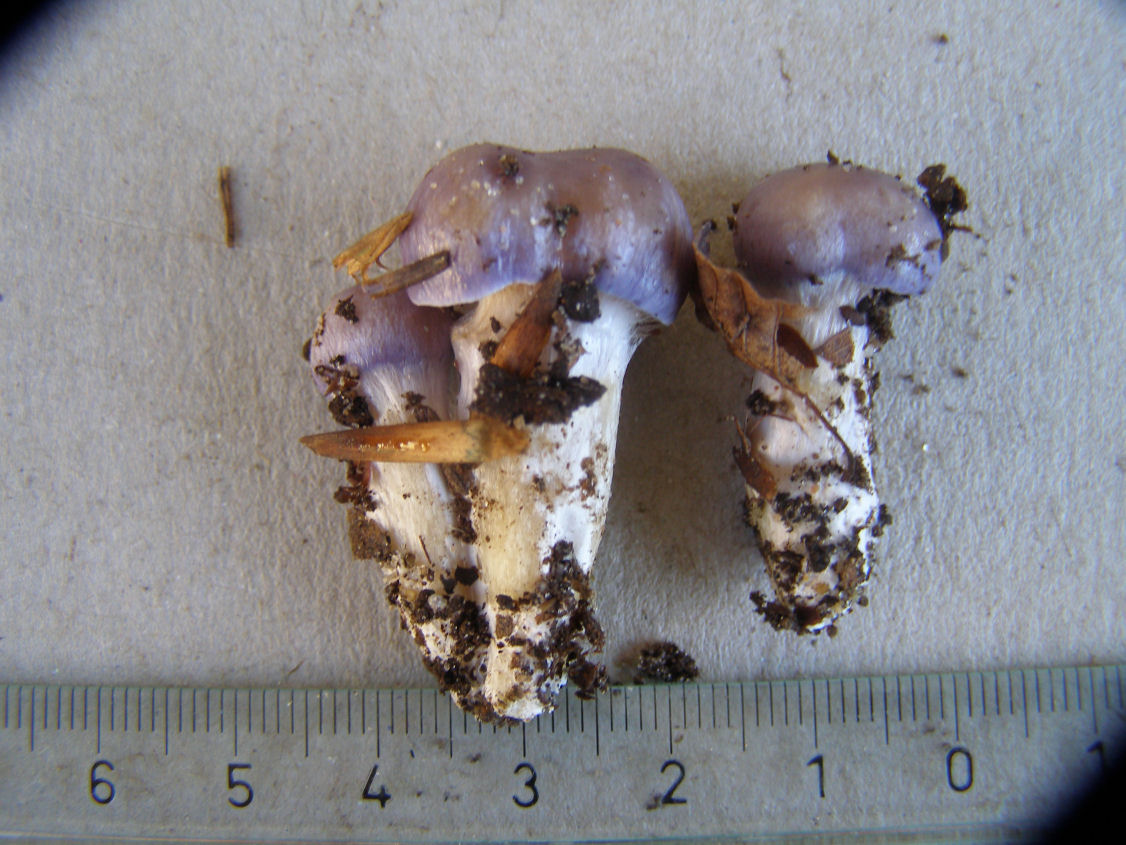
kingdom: Fungi
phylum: Basidiomycota
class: Agaricomycetes
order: Agaricales
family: Cortinariaceae
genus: Thaxterogaster
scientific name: Thaxterogaster croceocoeruleus
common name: blågullig slørhat
